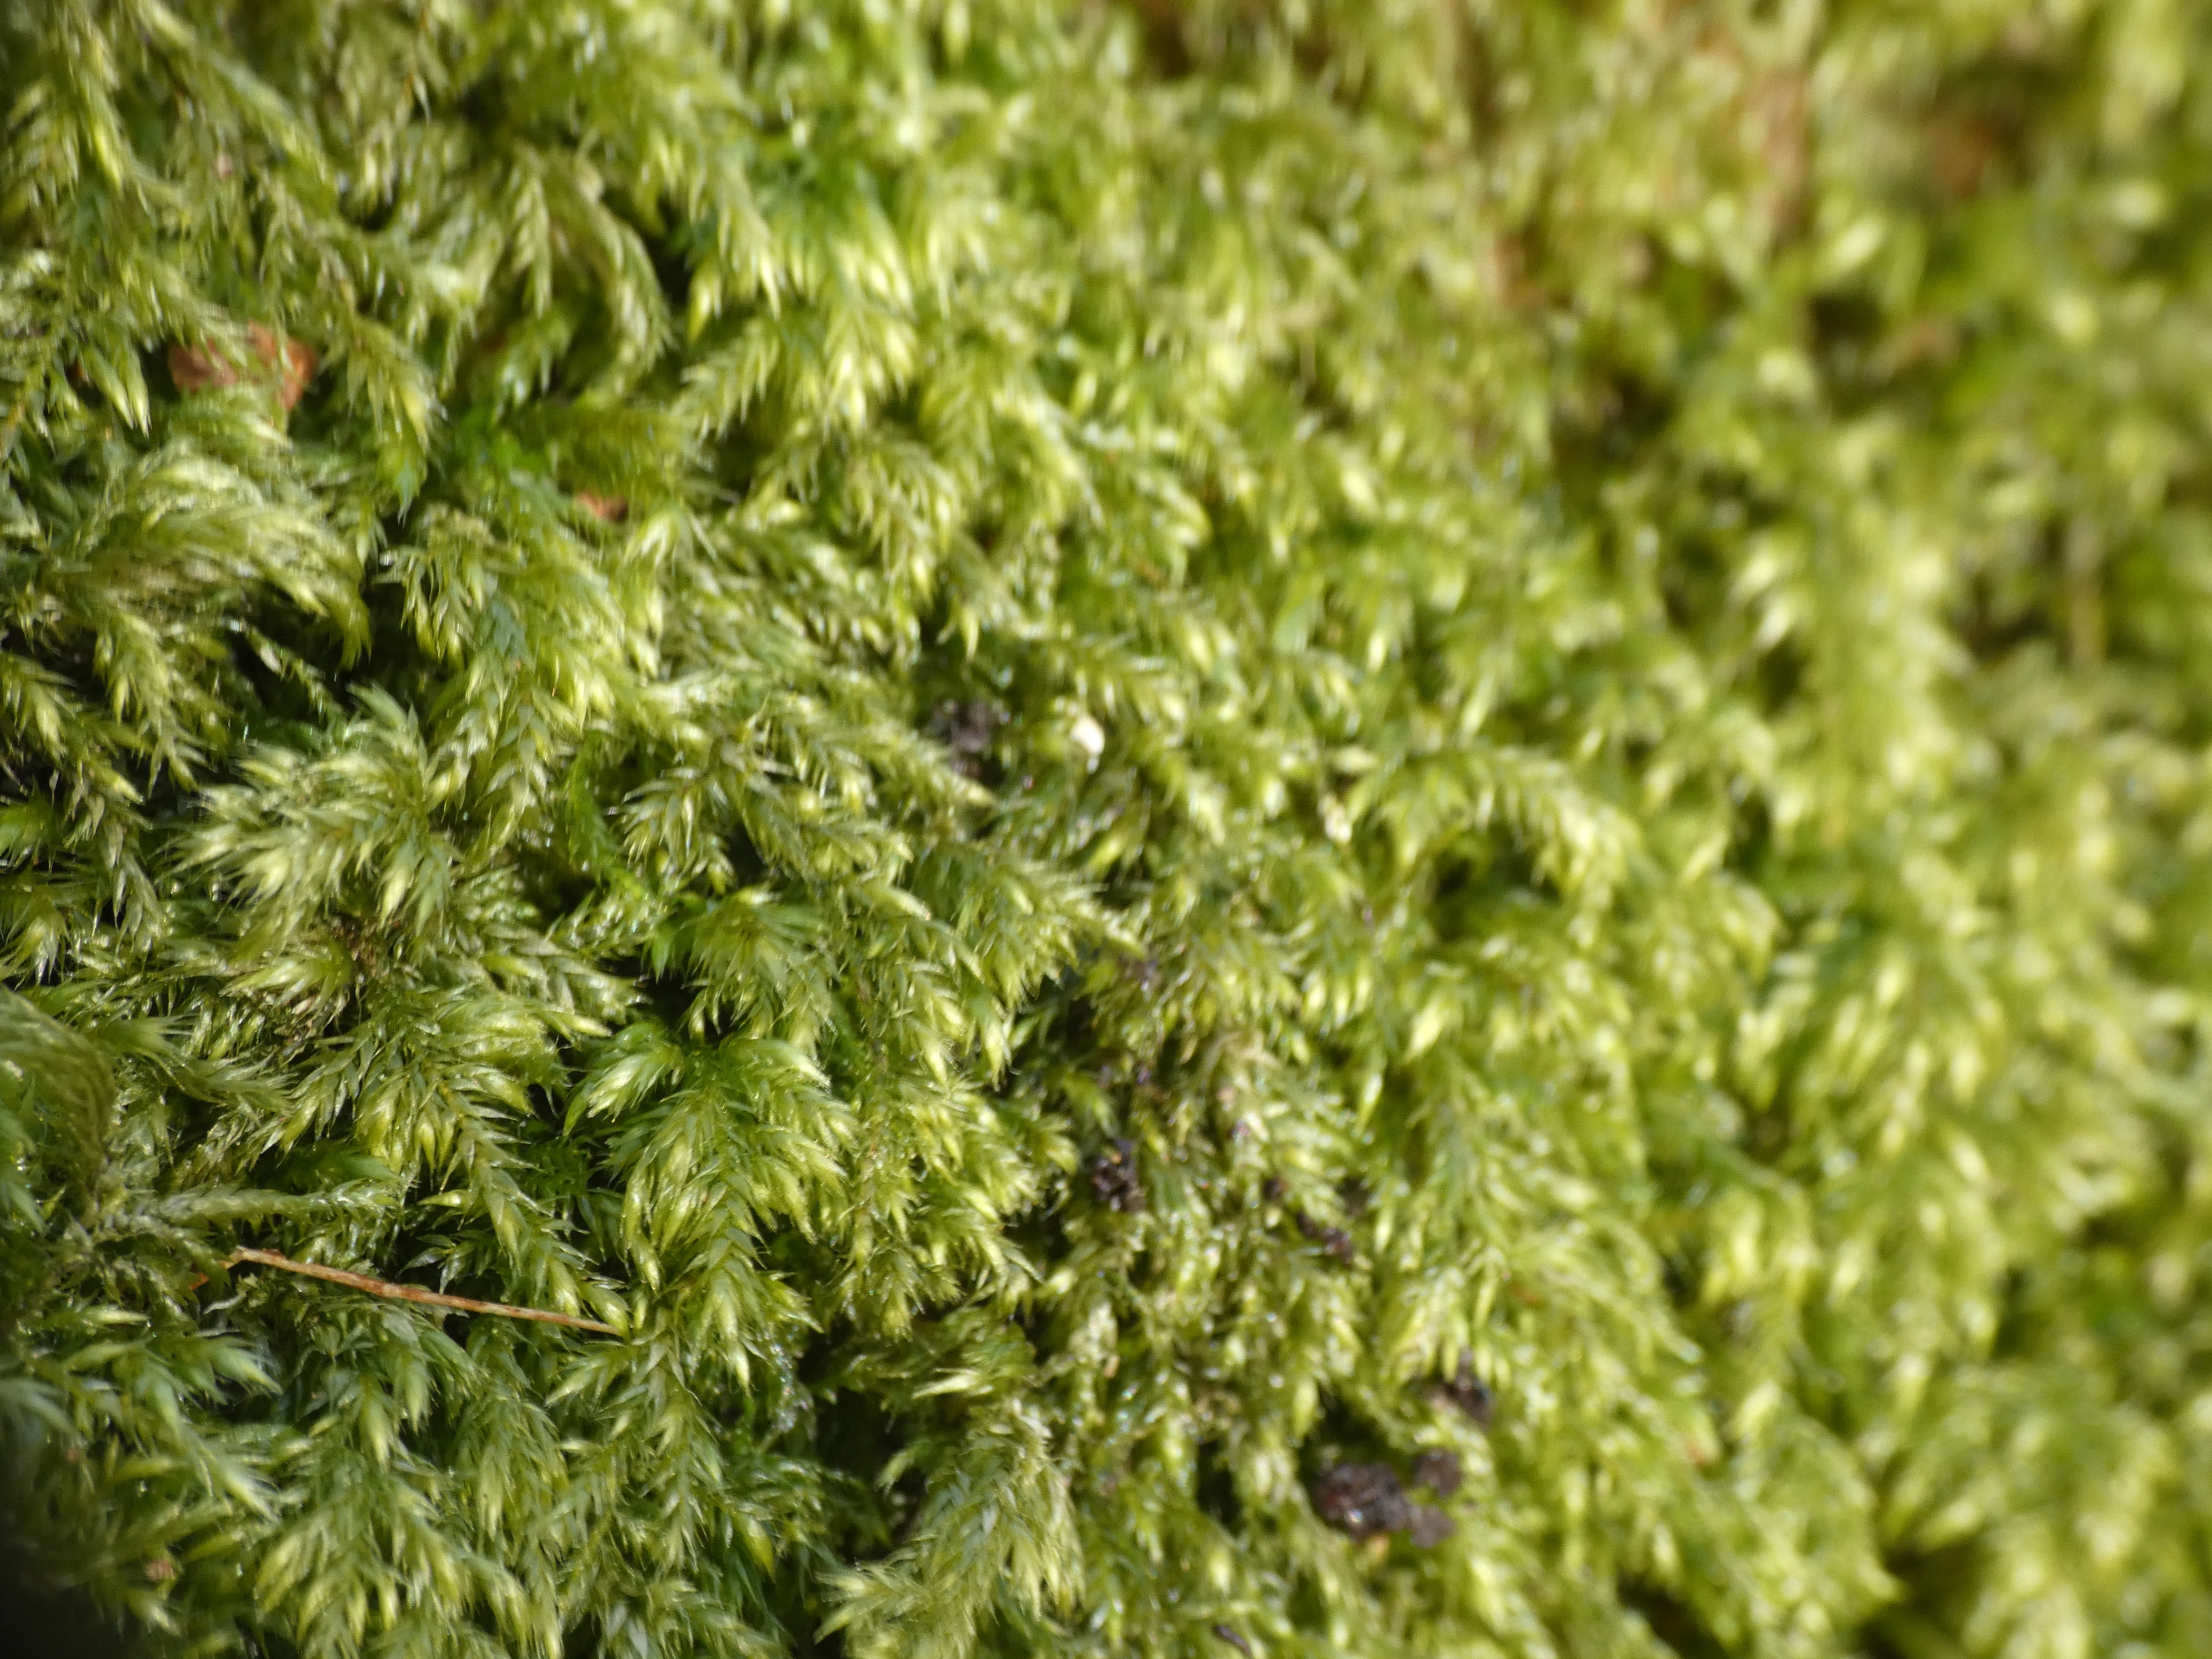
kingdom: Plantae
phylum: Bryophyta
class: Bryopsida
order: Hypnales
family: Lembophyllaceae
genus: Pseudisothecium
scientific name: Pseudisothecium myosuroides
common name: Slank stammemos
